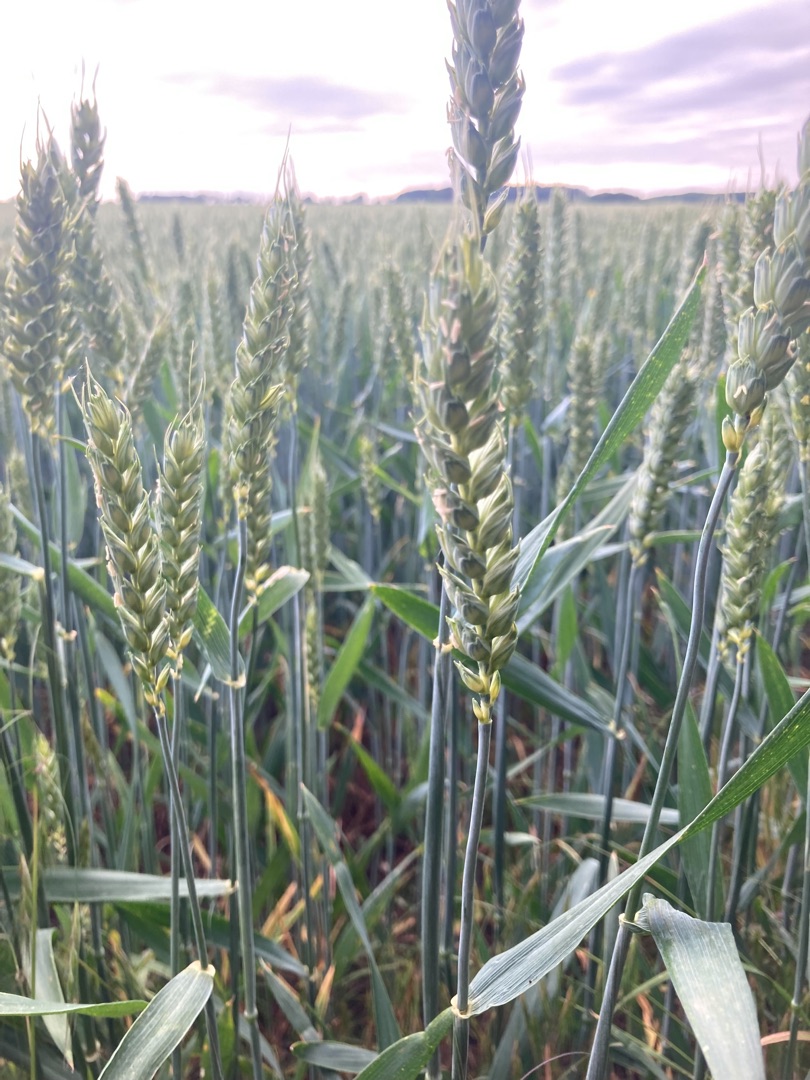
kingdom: Plantae
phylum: Tracheophyta
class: Liliopsida
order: Poales
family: Poaceae
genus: Triticum
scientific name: Triticum aestivum
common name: Almindelig hvede
